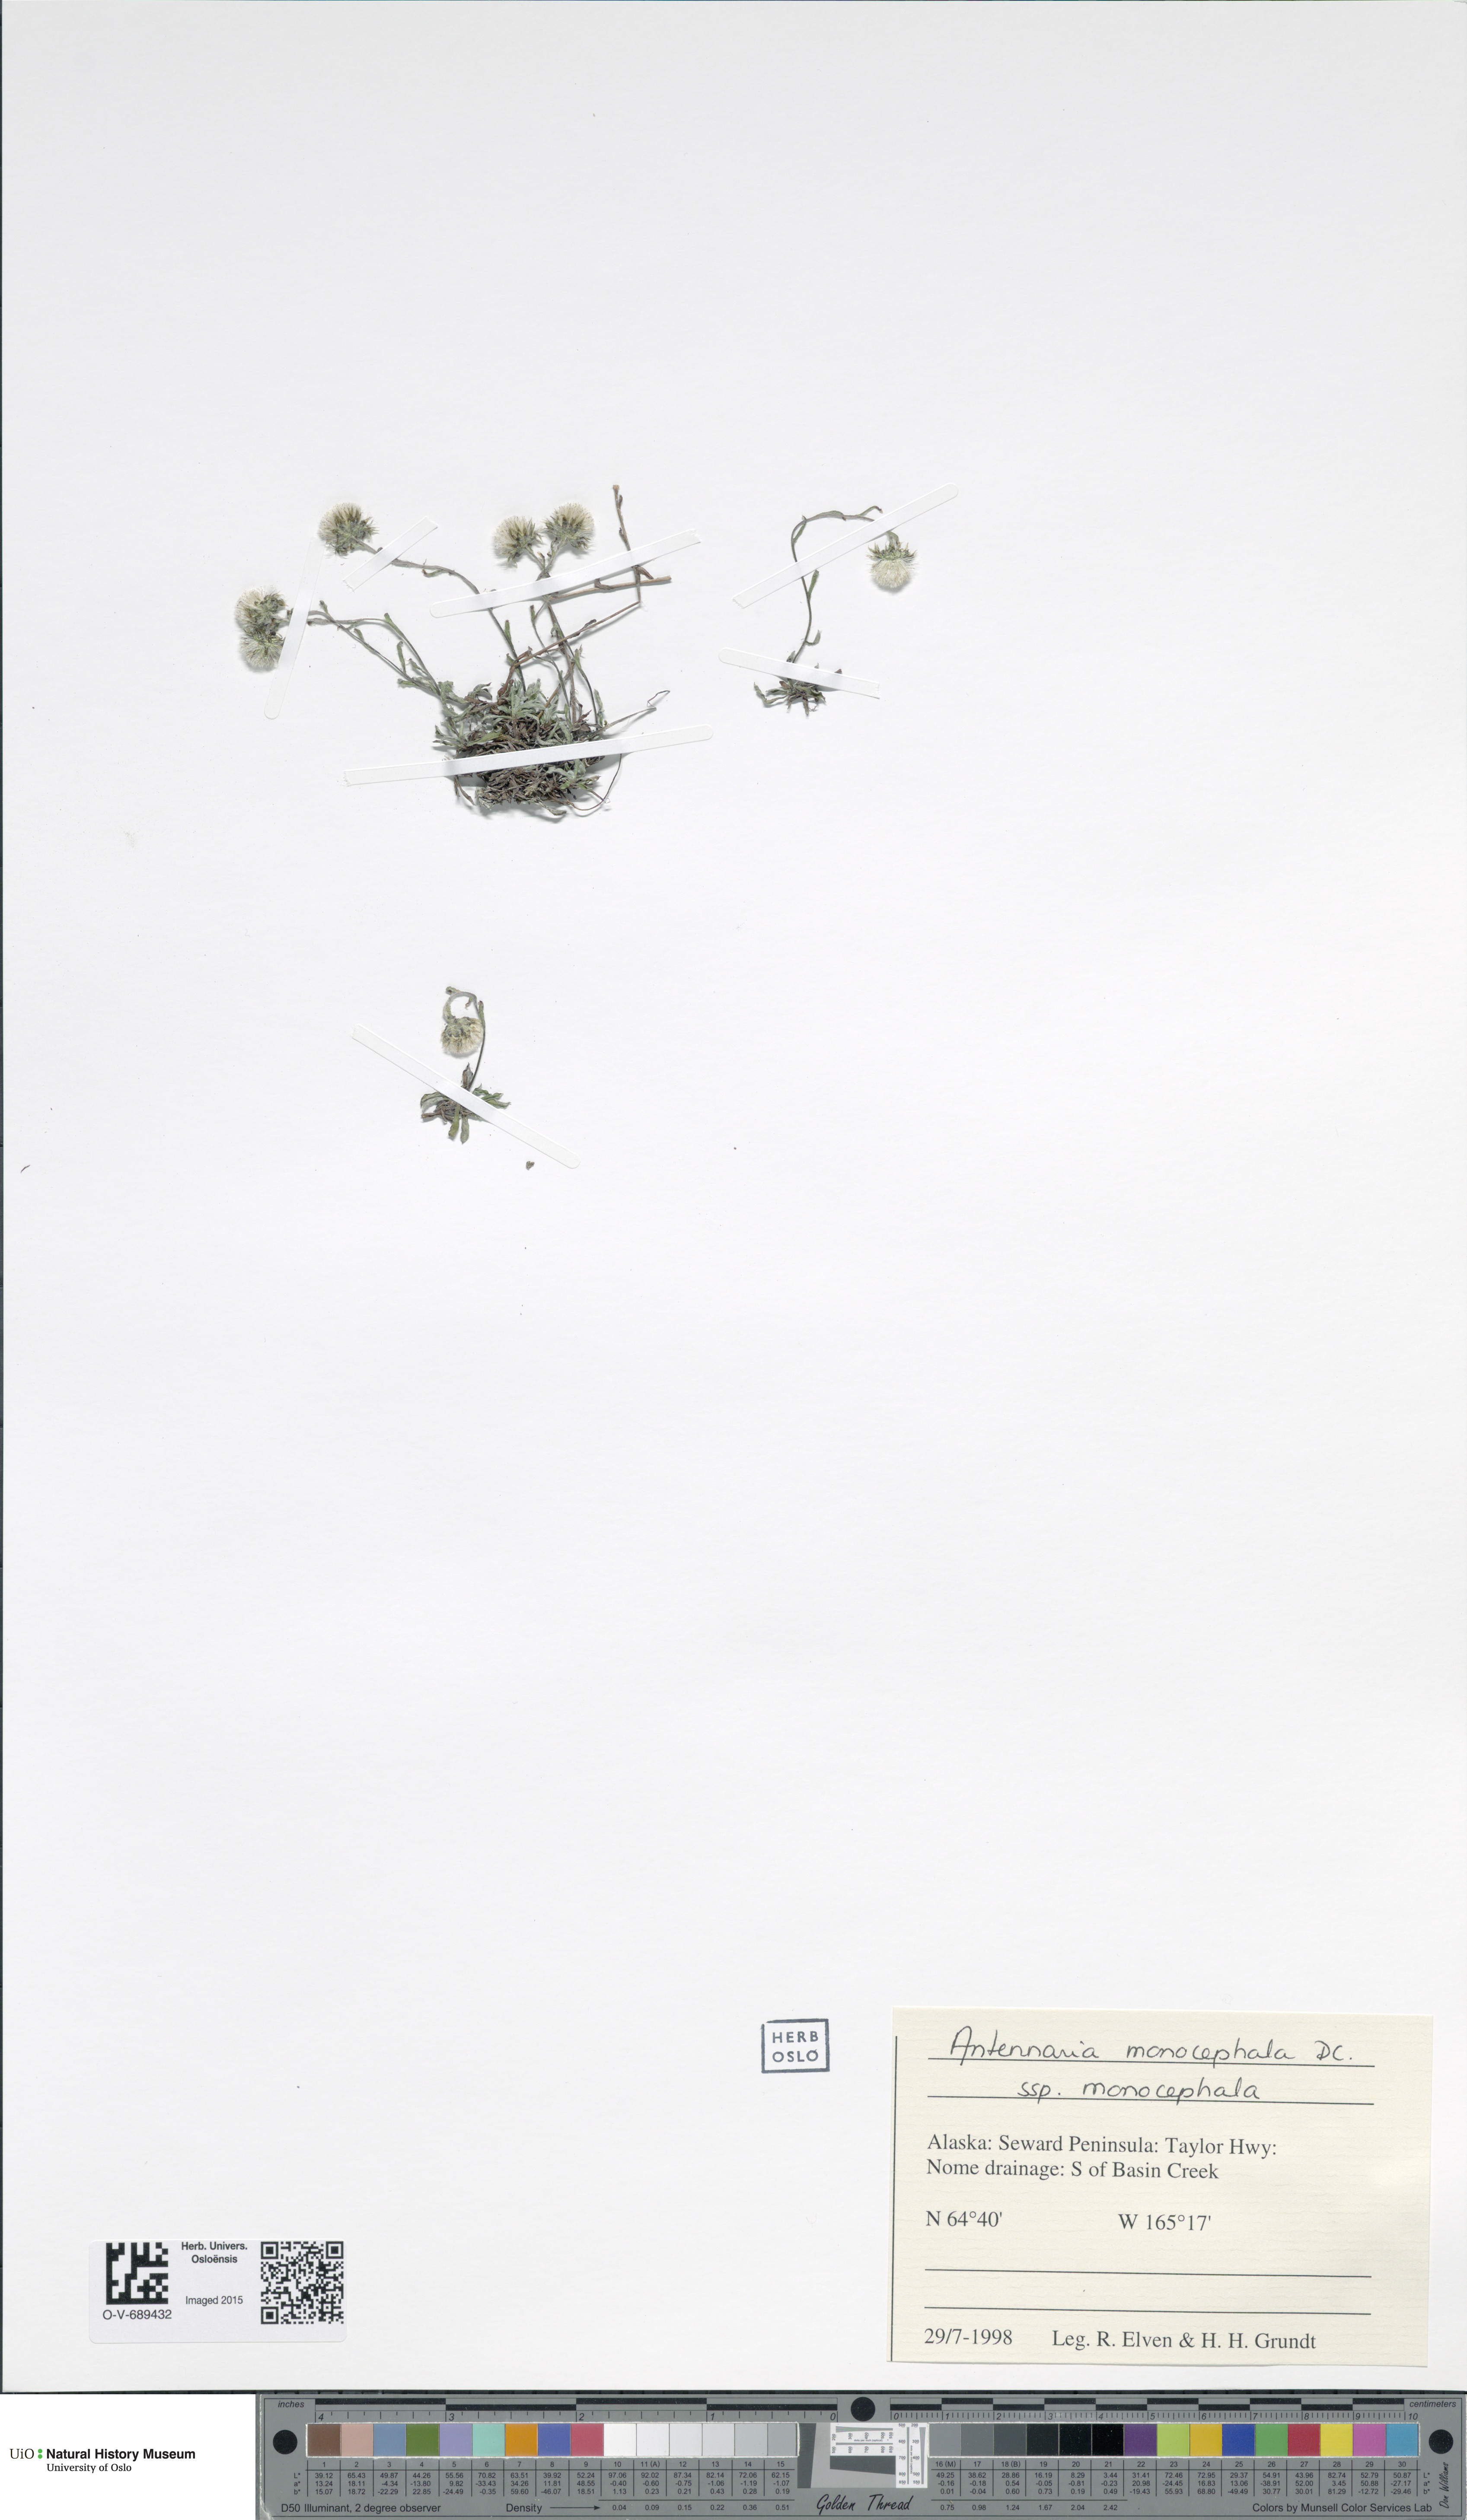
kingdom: Plantae
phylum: Tracheophyta
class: Magnoliopsida
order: Asterales
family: Asteraceae
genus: Antennaria
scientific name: Antennaria monocephala
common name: Pygmy pussytoes
